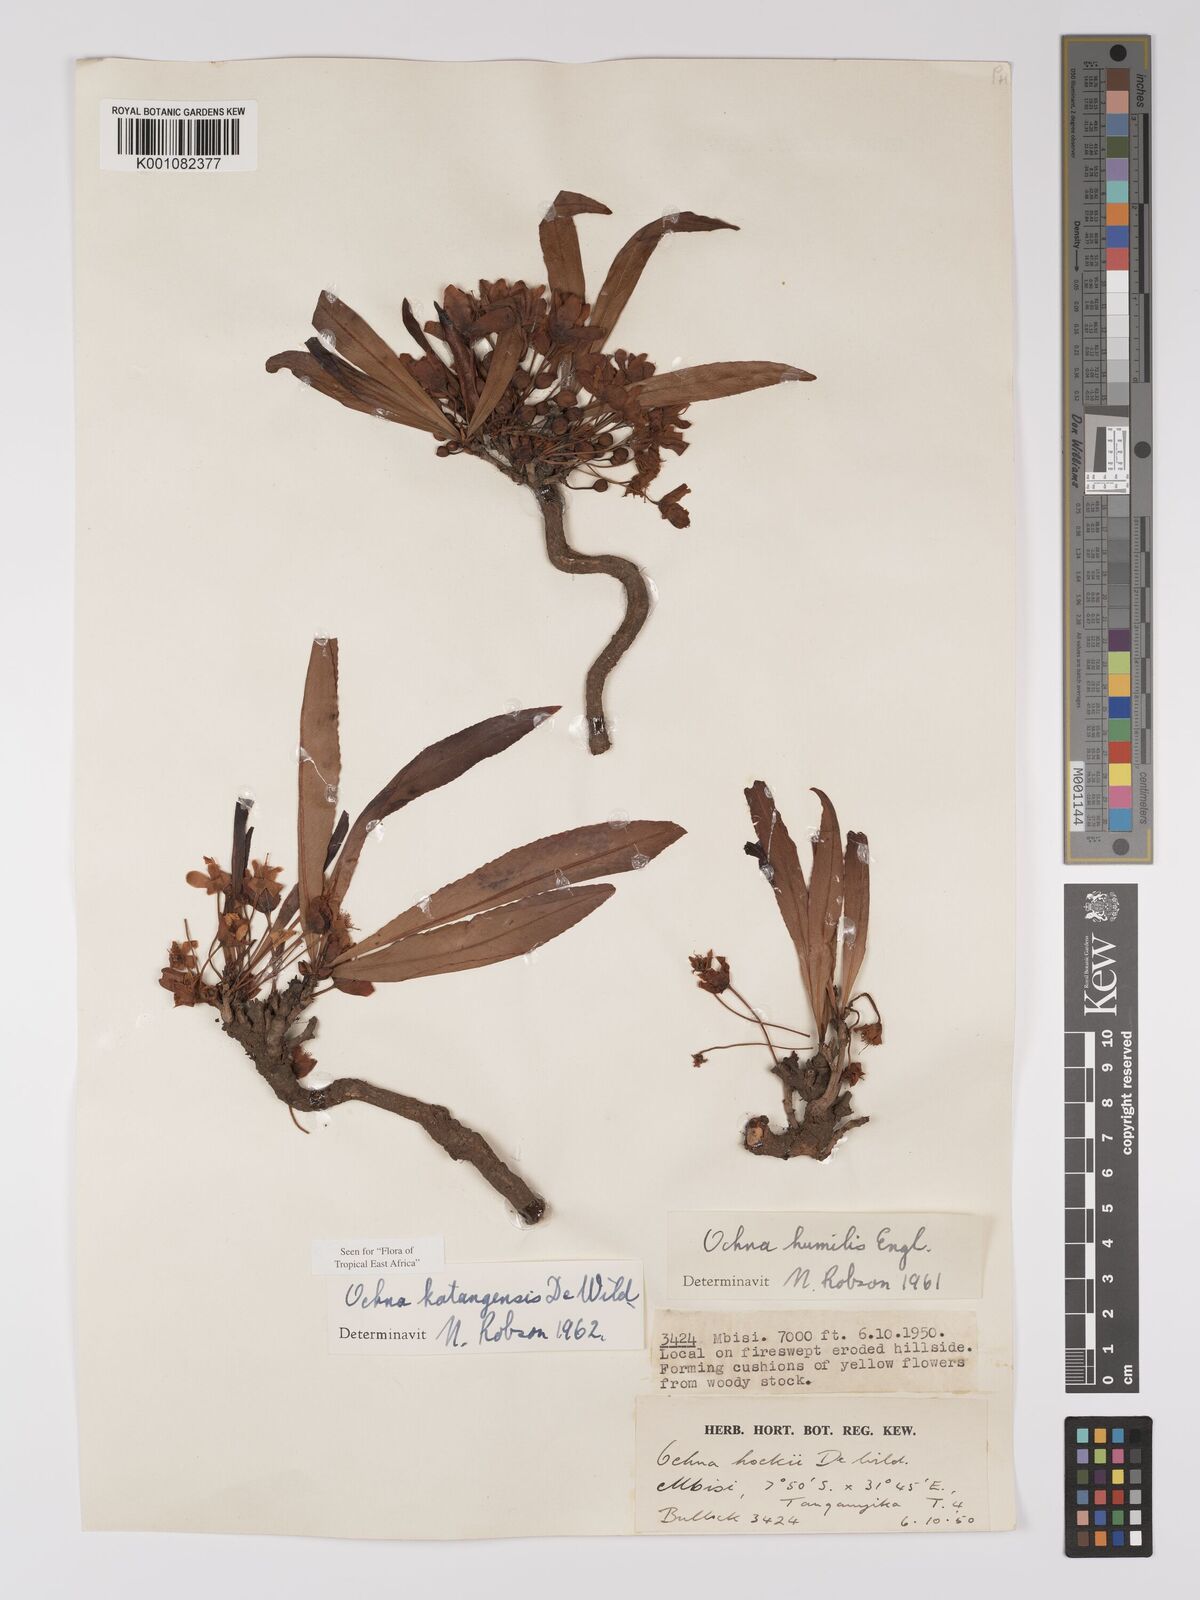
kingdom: Plantae
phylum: Tracheophyta
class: Magnoliopsida
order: Malpighiales
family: Ochnaceae
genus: Ochna
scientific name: Ochna katangensis
